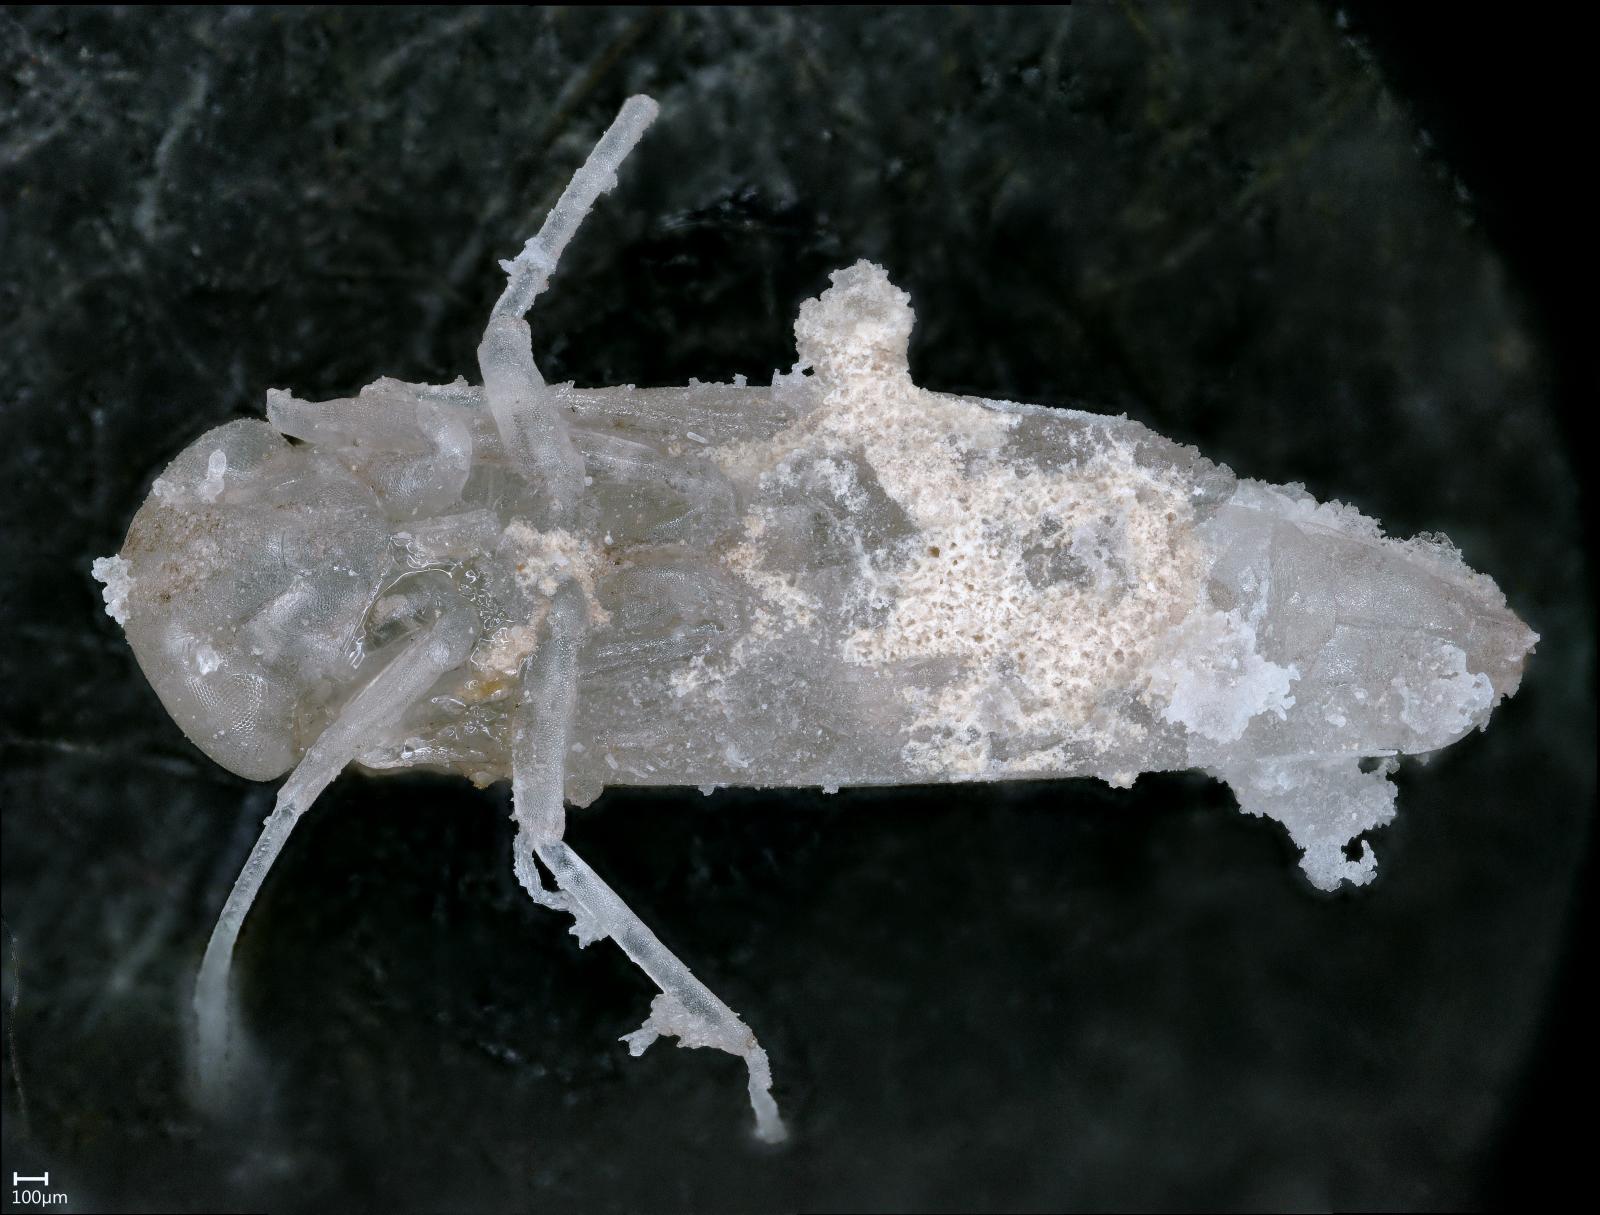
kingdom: Animalia
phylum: Arthropoda
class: Insecta
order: Hemiptera
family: Cicadellidae
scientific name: Cicadellidae
